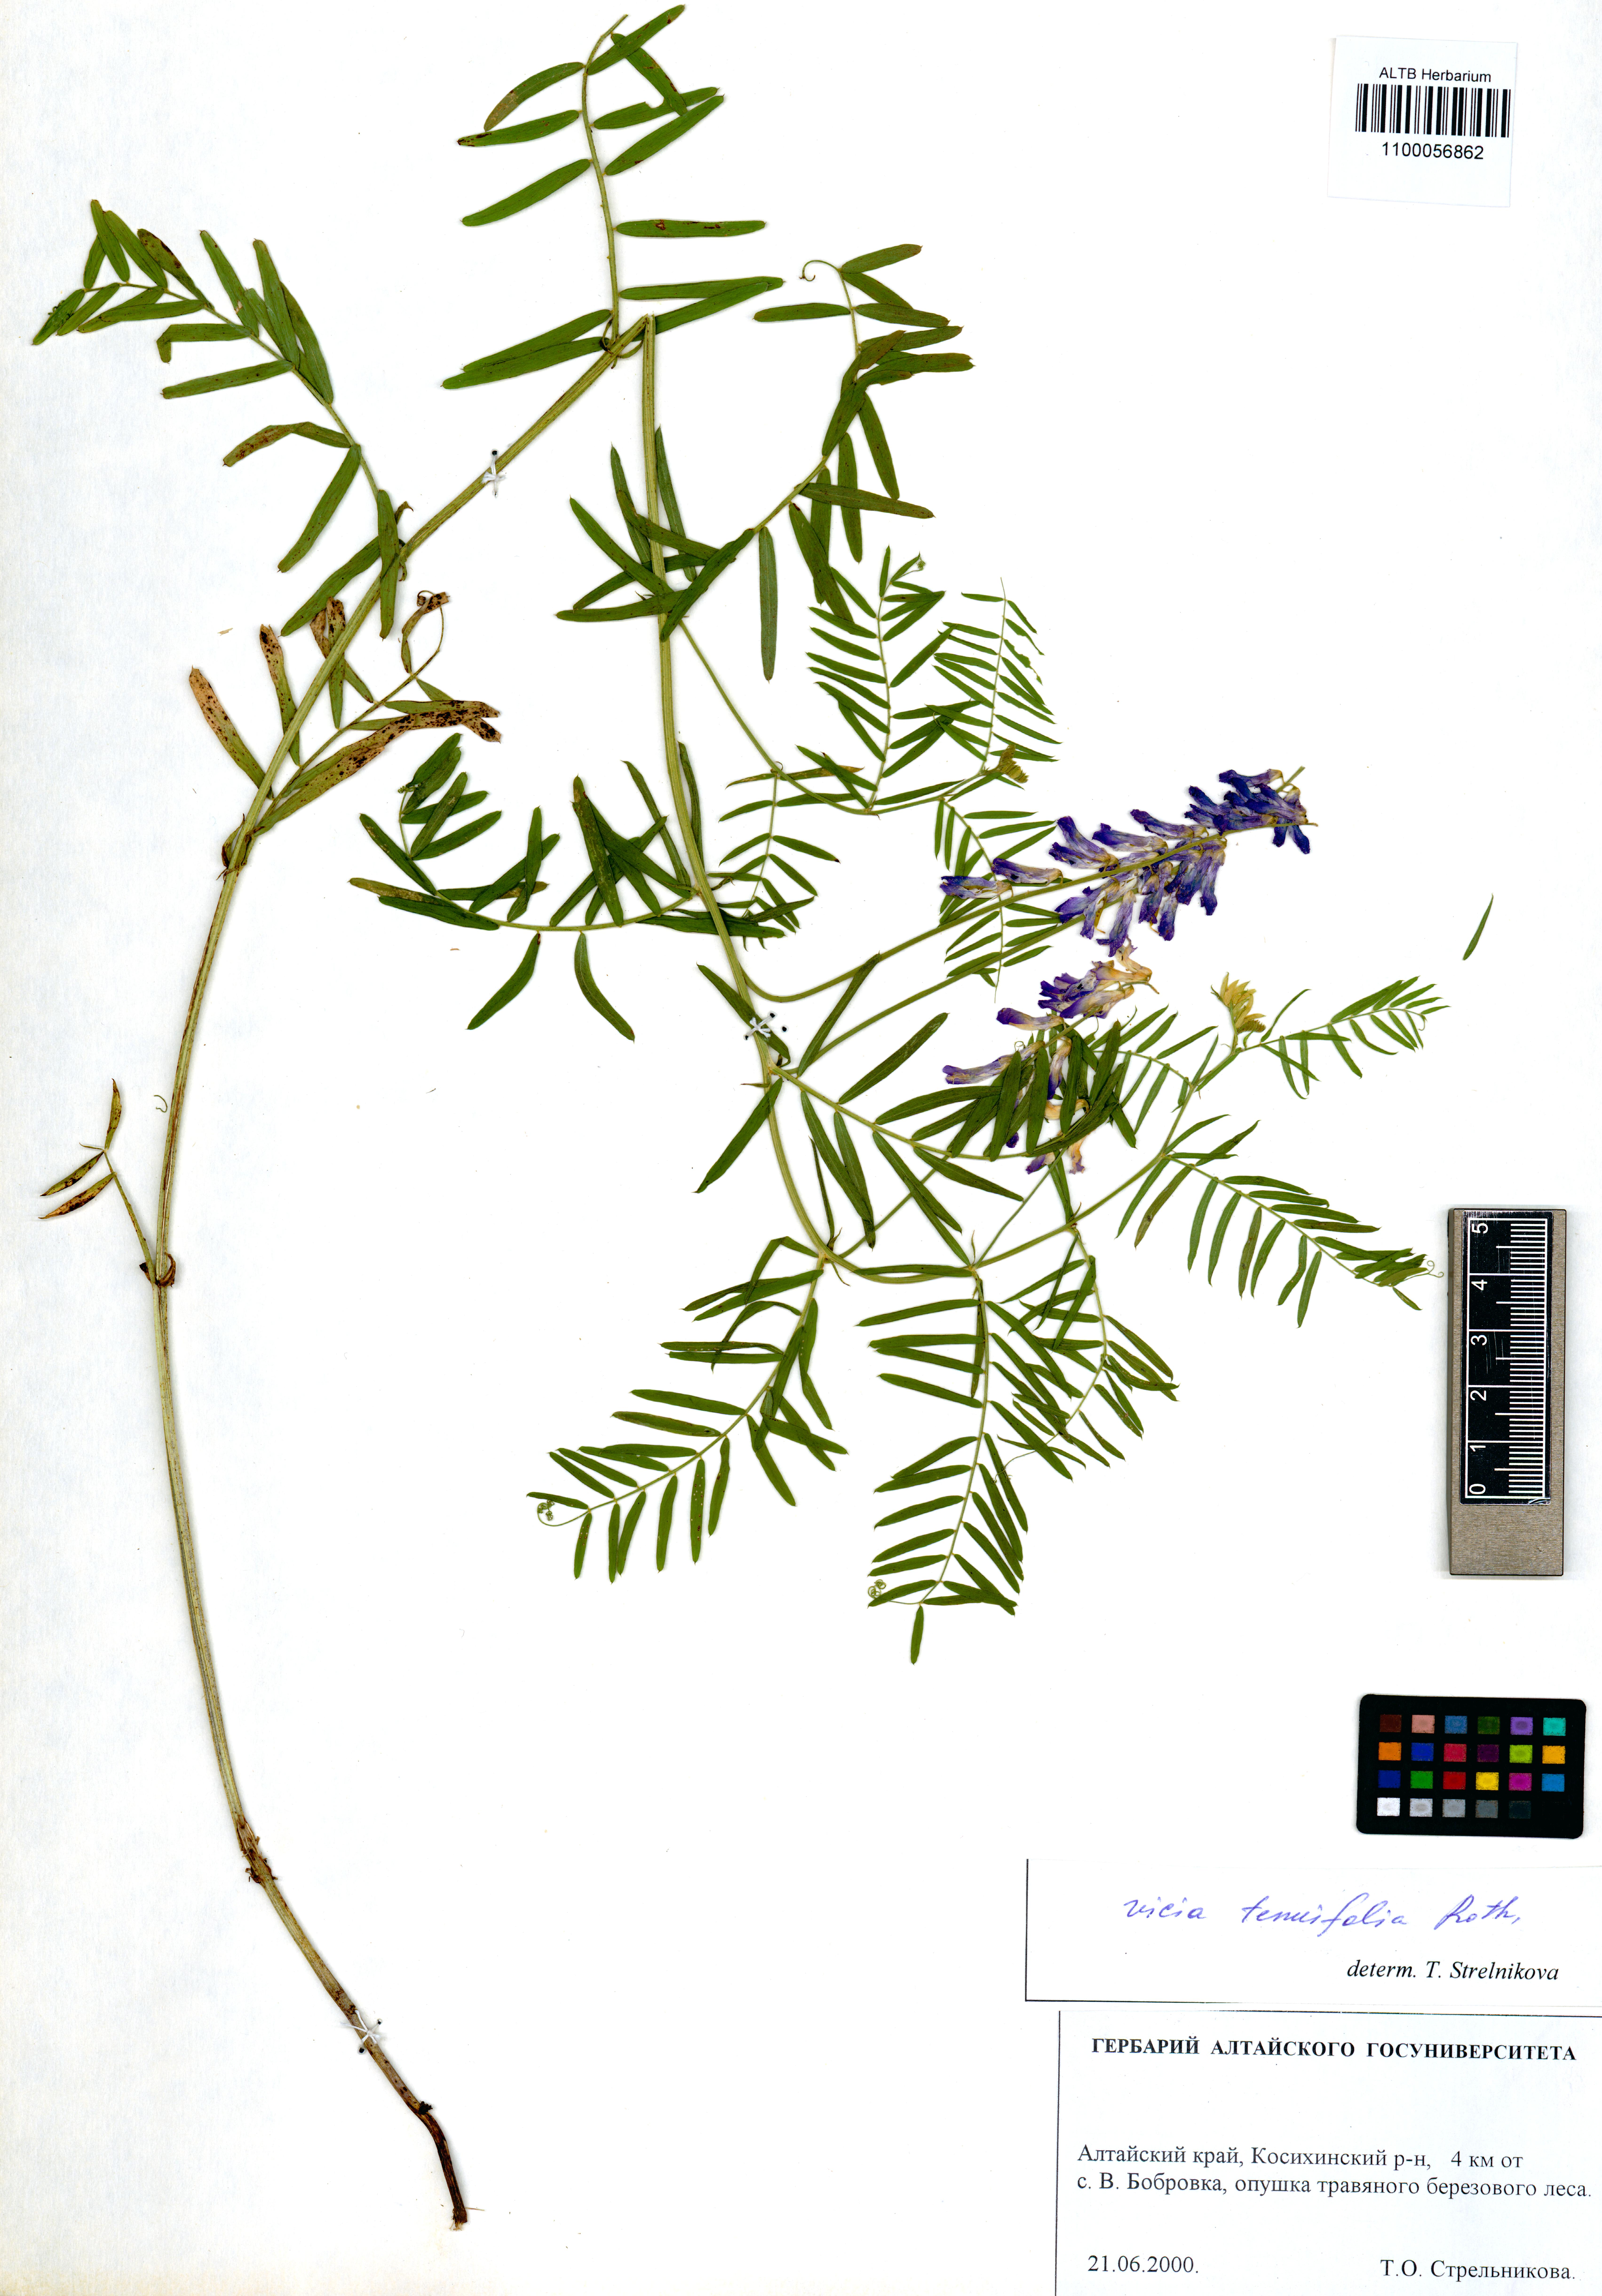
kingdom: Plantae
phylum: Tracheophyta
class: Magnoliopsida
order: Fabales
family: Fabaceae
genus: Vicia
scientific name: Vicia tenuifolia
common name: Fine-leaved vetch
